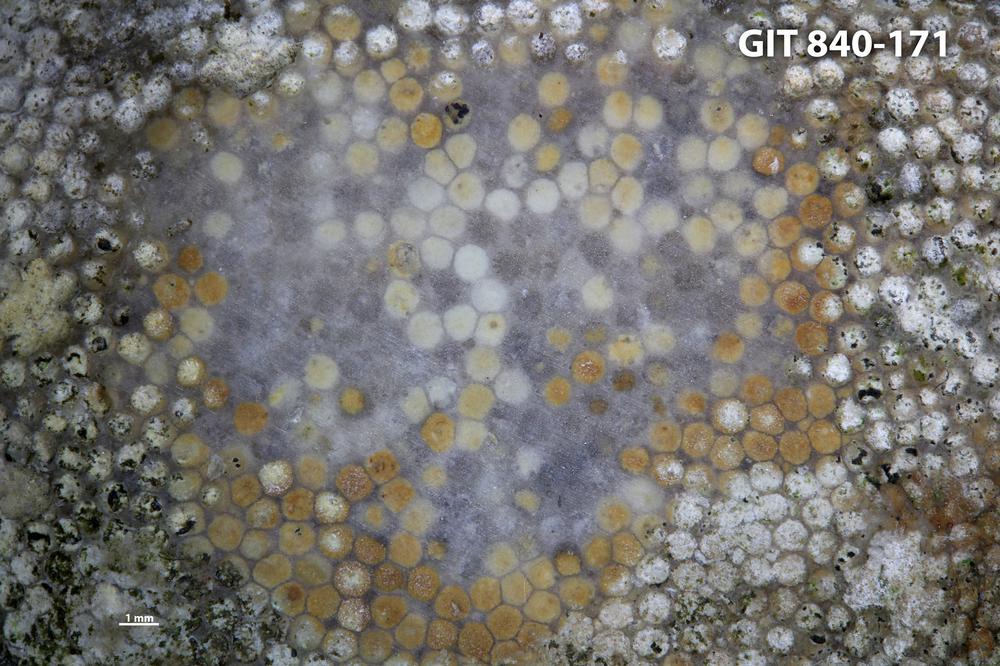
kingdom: Animalia
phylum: Cnidaria
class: Anthozoa
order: Heliolitina
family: Proheliolitidae
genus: Protoheliolites
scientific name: Protoheliolites
